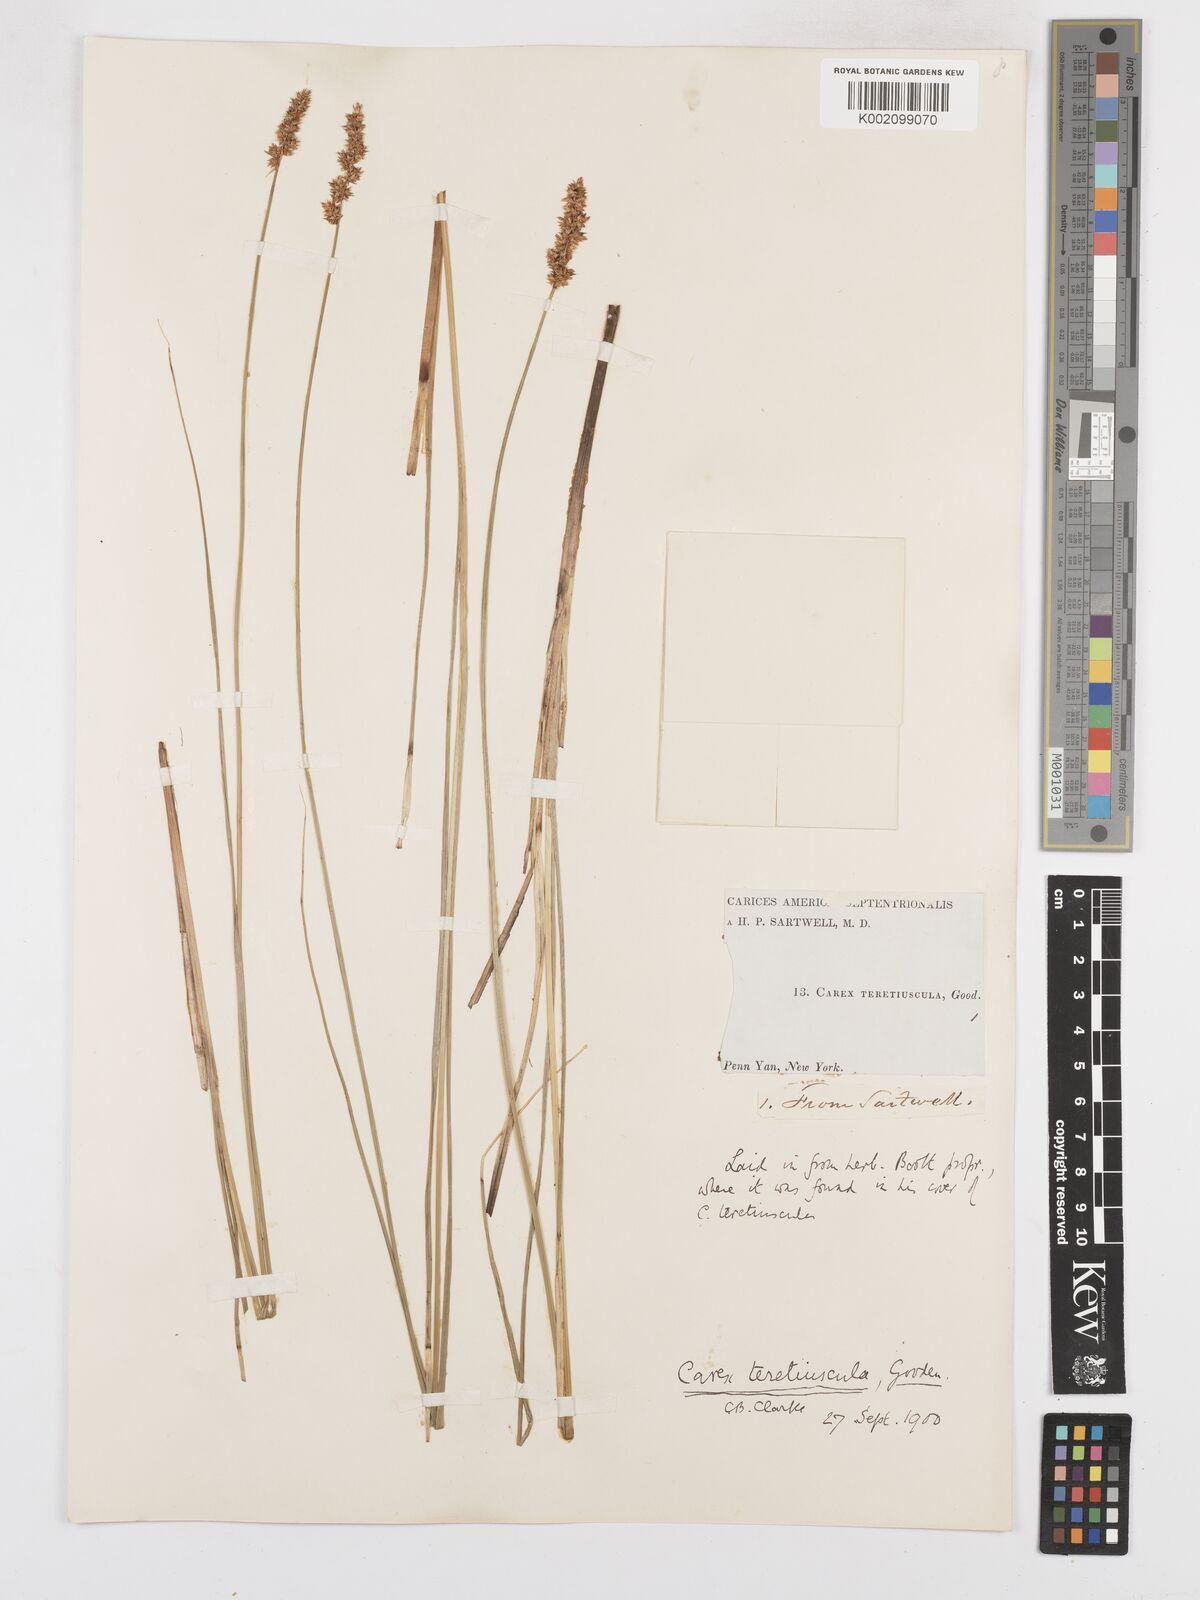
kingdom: Plantae
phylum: Tracheophyta
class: Liliopsida
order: Poales
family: Cyperaceae
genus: Carex
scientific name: Carex diandra
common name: Lesser tussock-sedge
